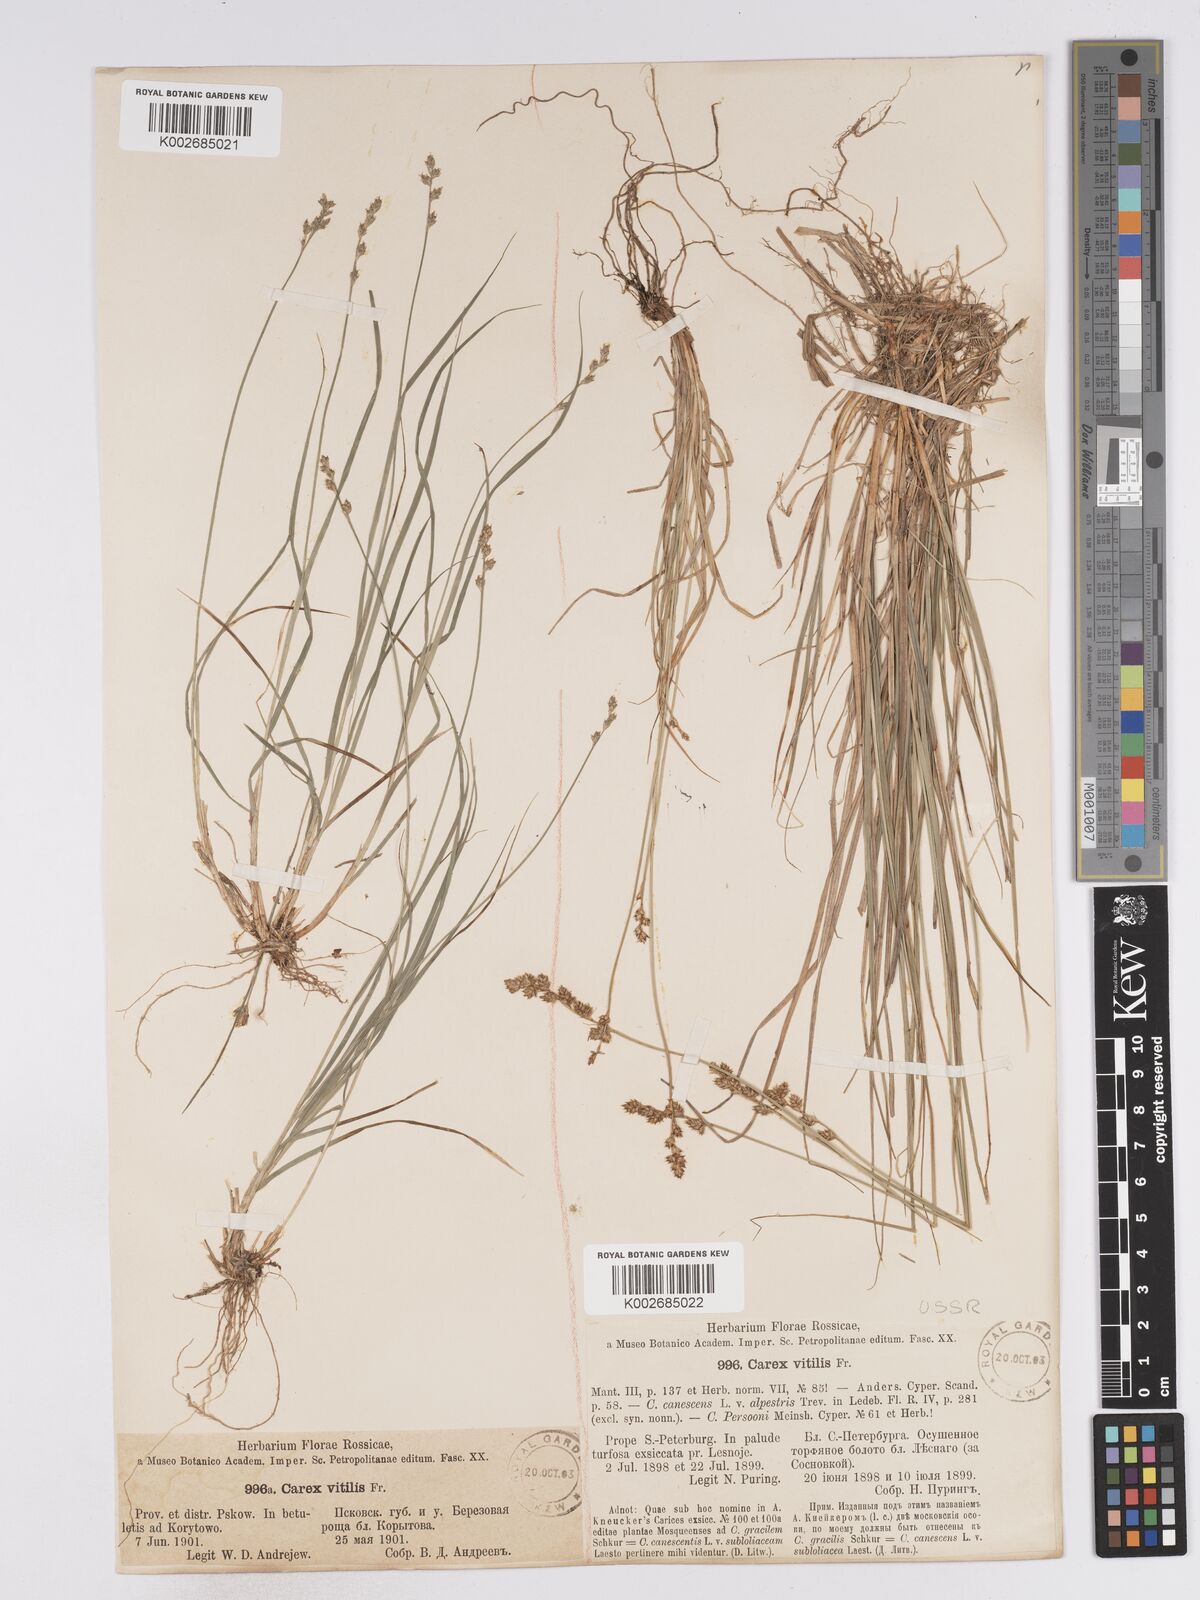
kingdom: Plantae
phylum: Tracheophyta
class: Liliopsida
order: Poales
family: Cyperaceae
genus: Carex
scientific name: Carex brunnescens
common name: Brown sedge
